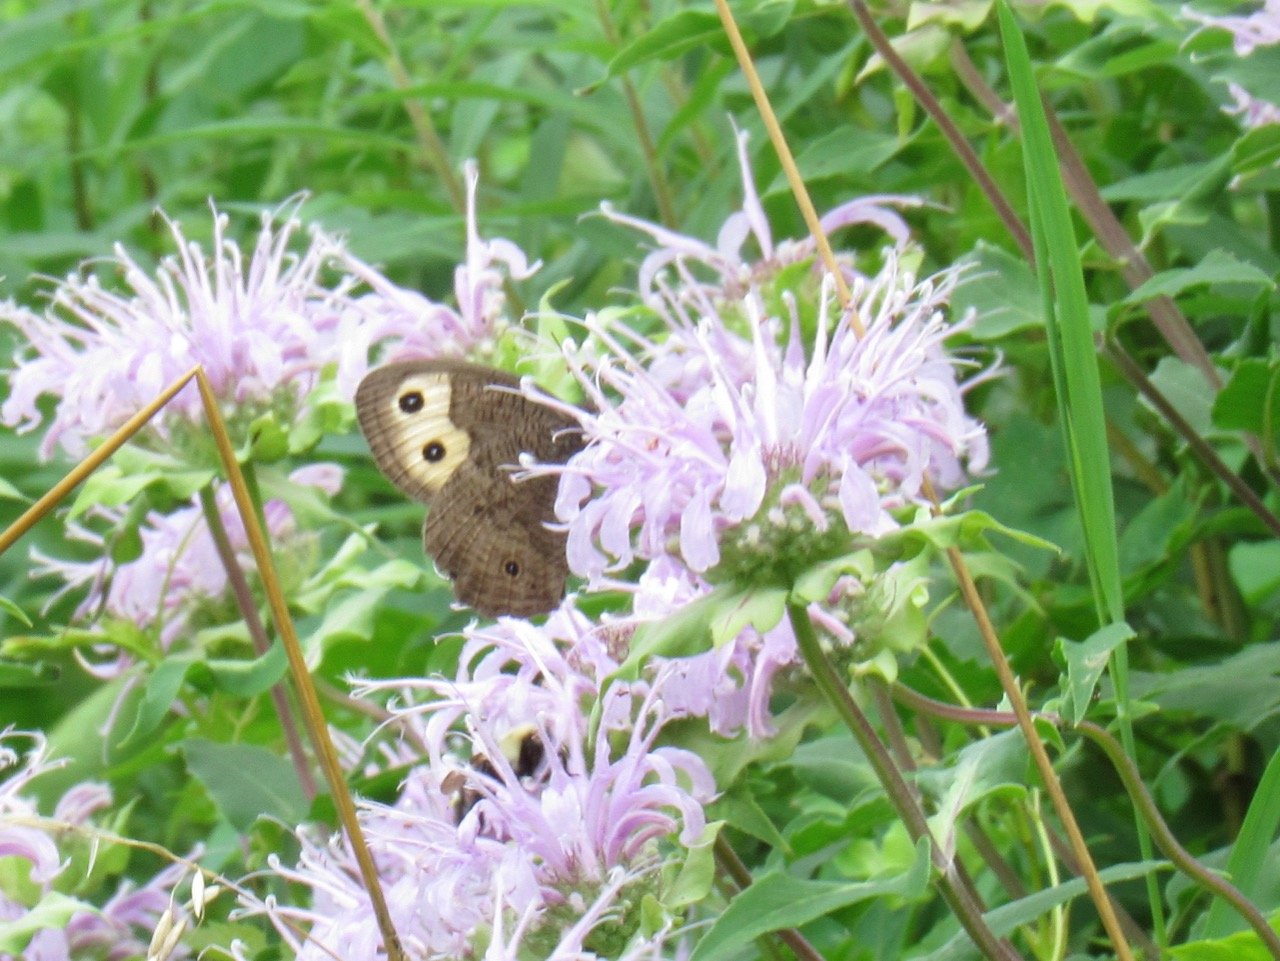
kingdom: Animalia
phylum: Arthropoda
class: Insecta
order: Lepidoptera
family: Nymphalidae
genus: Cercyonis
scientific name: Cercyonis pegala
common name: Common Wood-Nymph
